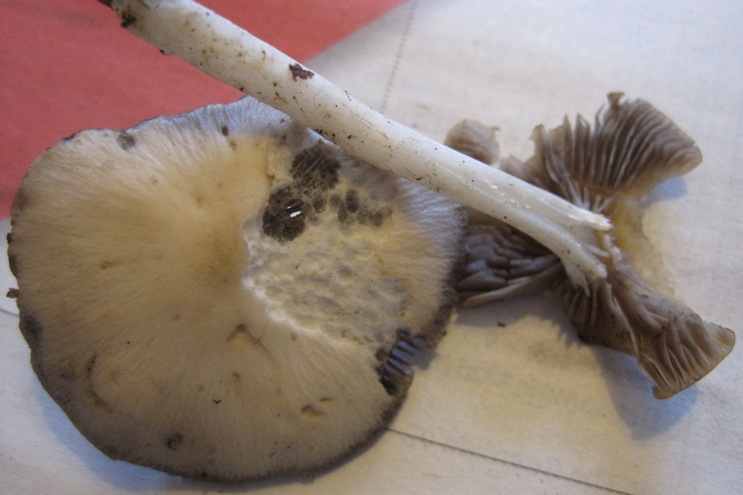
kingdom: Fungi
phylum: Basidiomycota
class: Agaricomycetes
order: Agaricales
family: Psathyrellaceae
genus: Candolleomyces
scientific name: Candolleomyces candolleanus
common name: Candolles mørkhat
